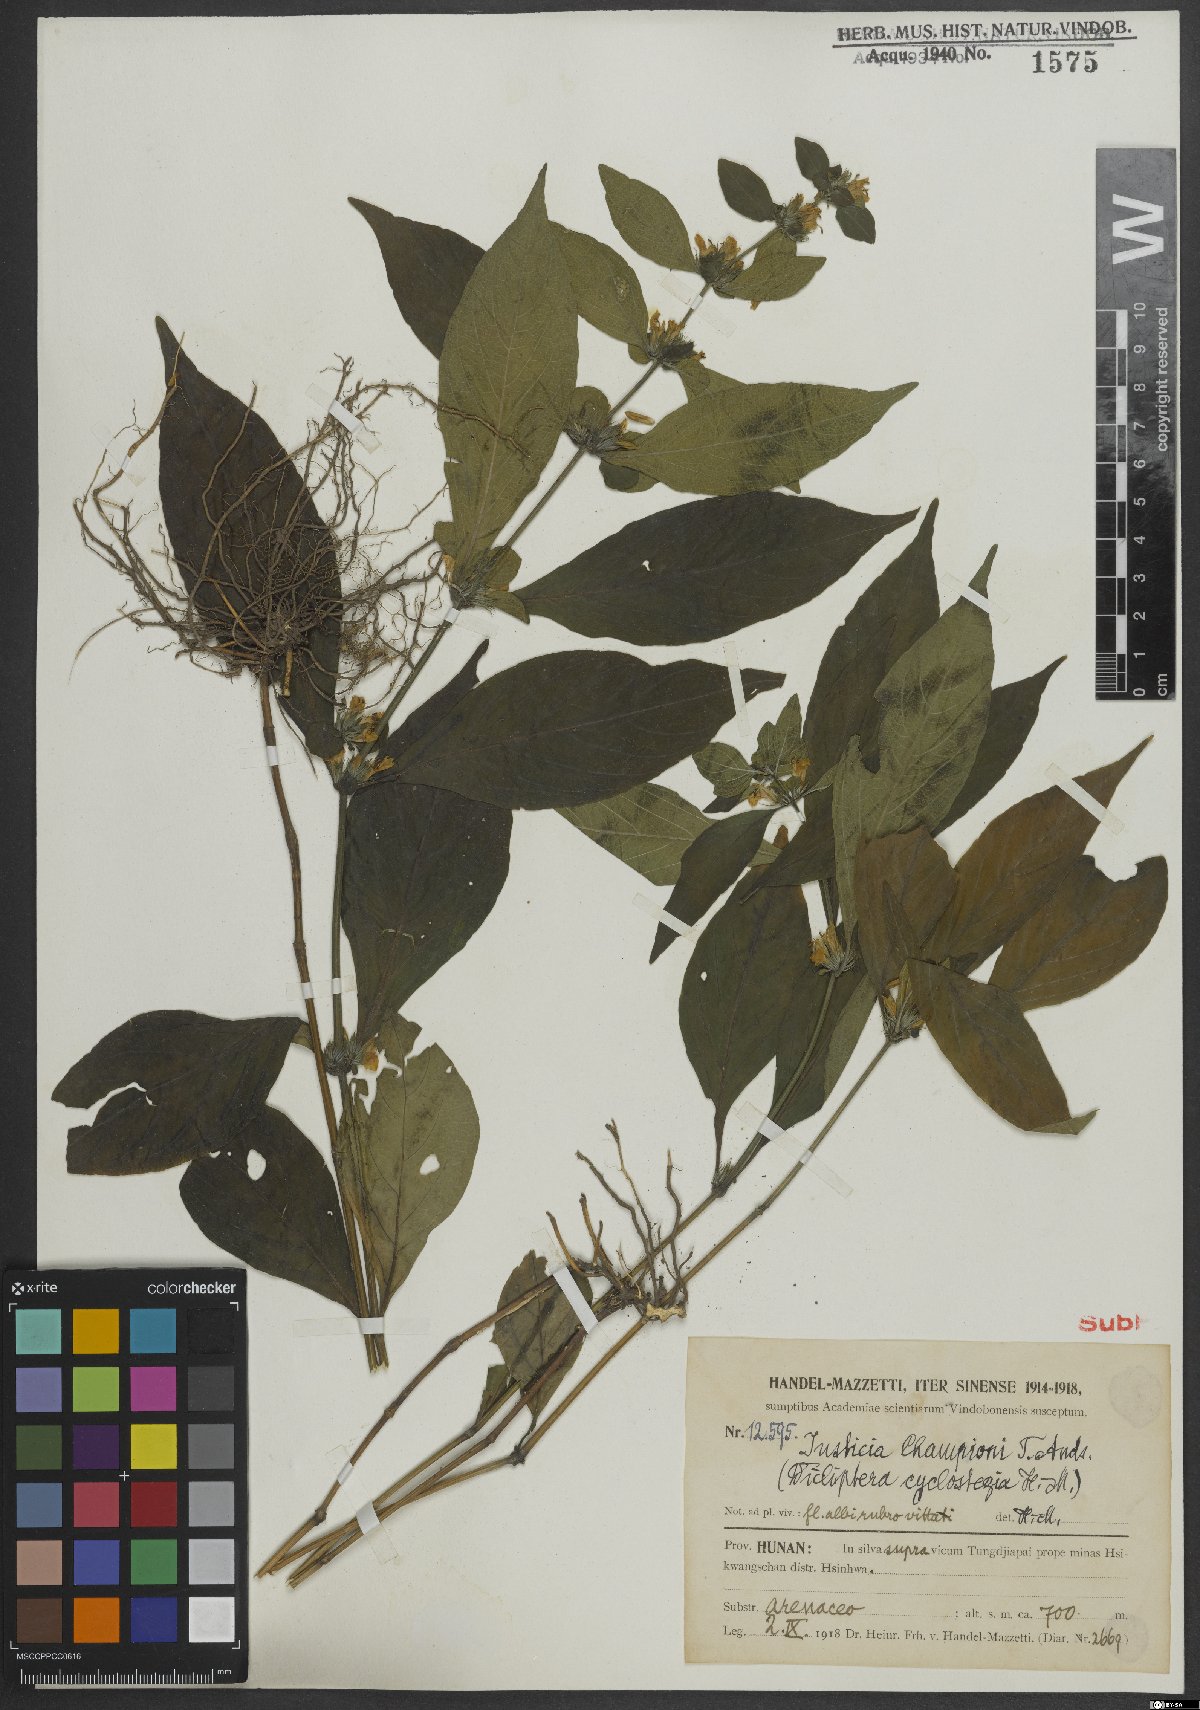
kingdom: Plantae
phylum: Tracheophyta
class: Magnoliopsida
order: Lamiales
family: Acanthaceae
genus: Justicia
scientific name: Justicia cyclostegia
